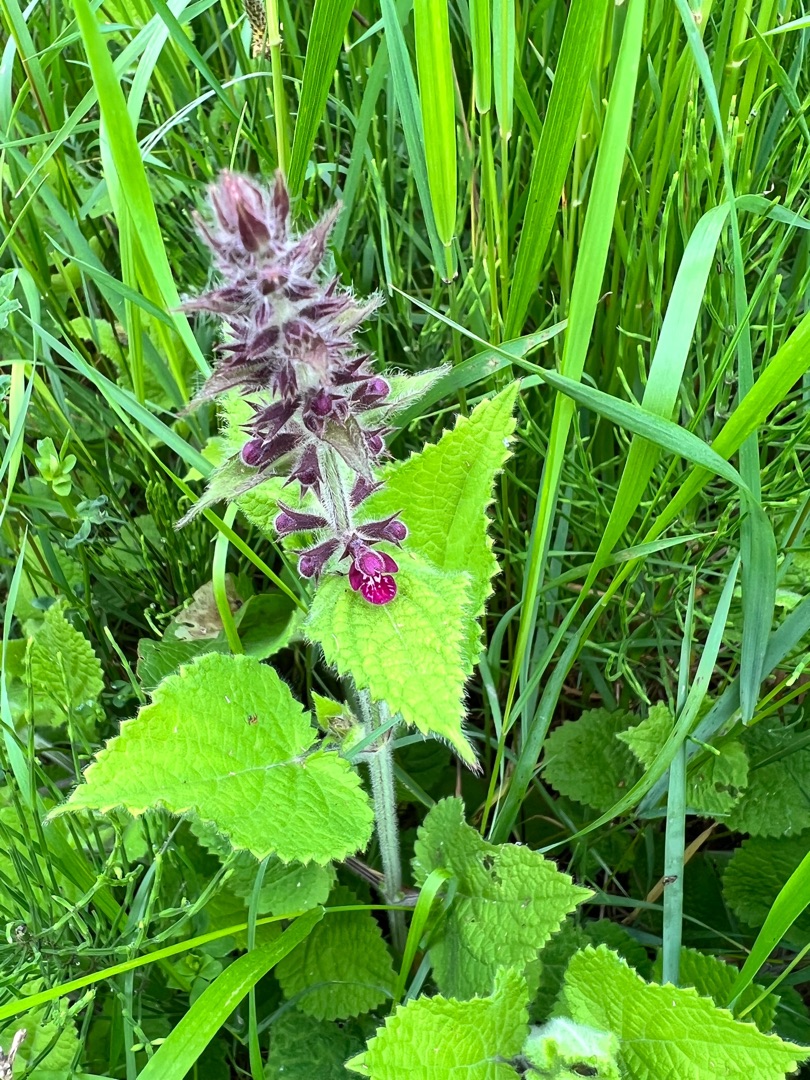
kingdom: Plantae
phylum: Tracheophyta
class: Magnoliopsida
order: Lamiales
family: Lamiaceae
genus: Stachys
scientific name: Stachys sylvatica
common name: Skov-galtetand
